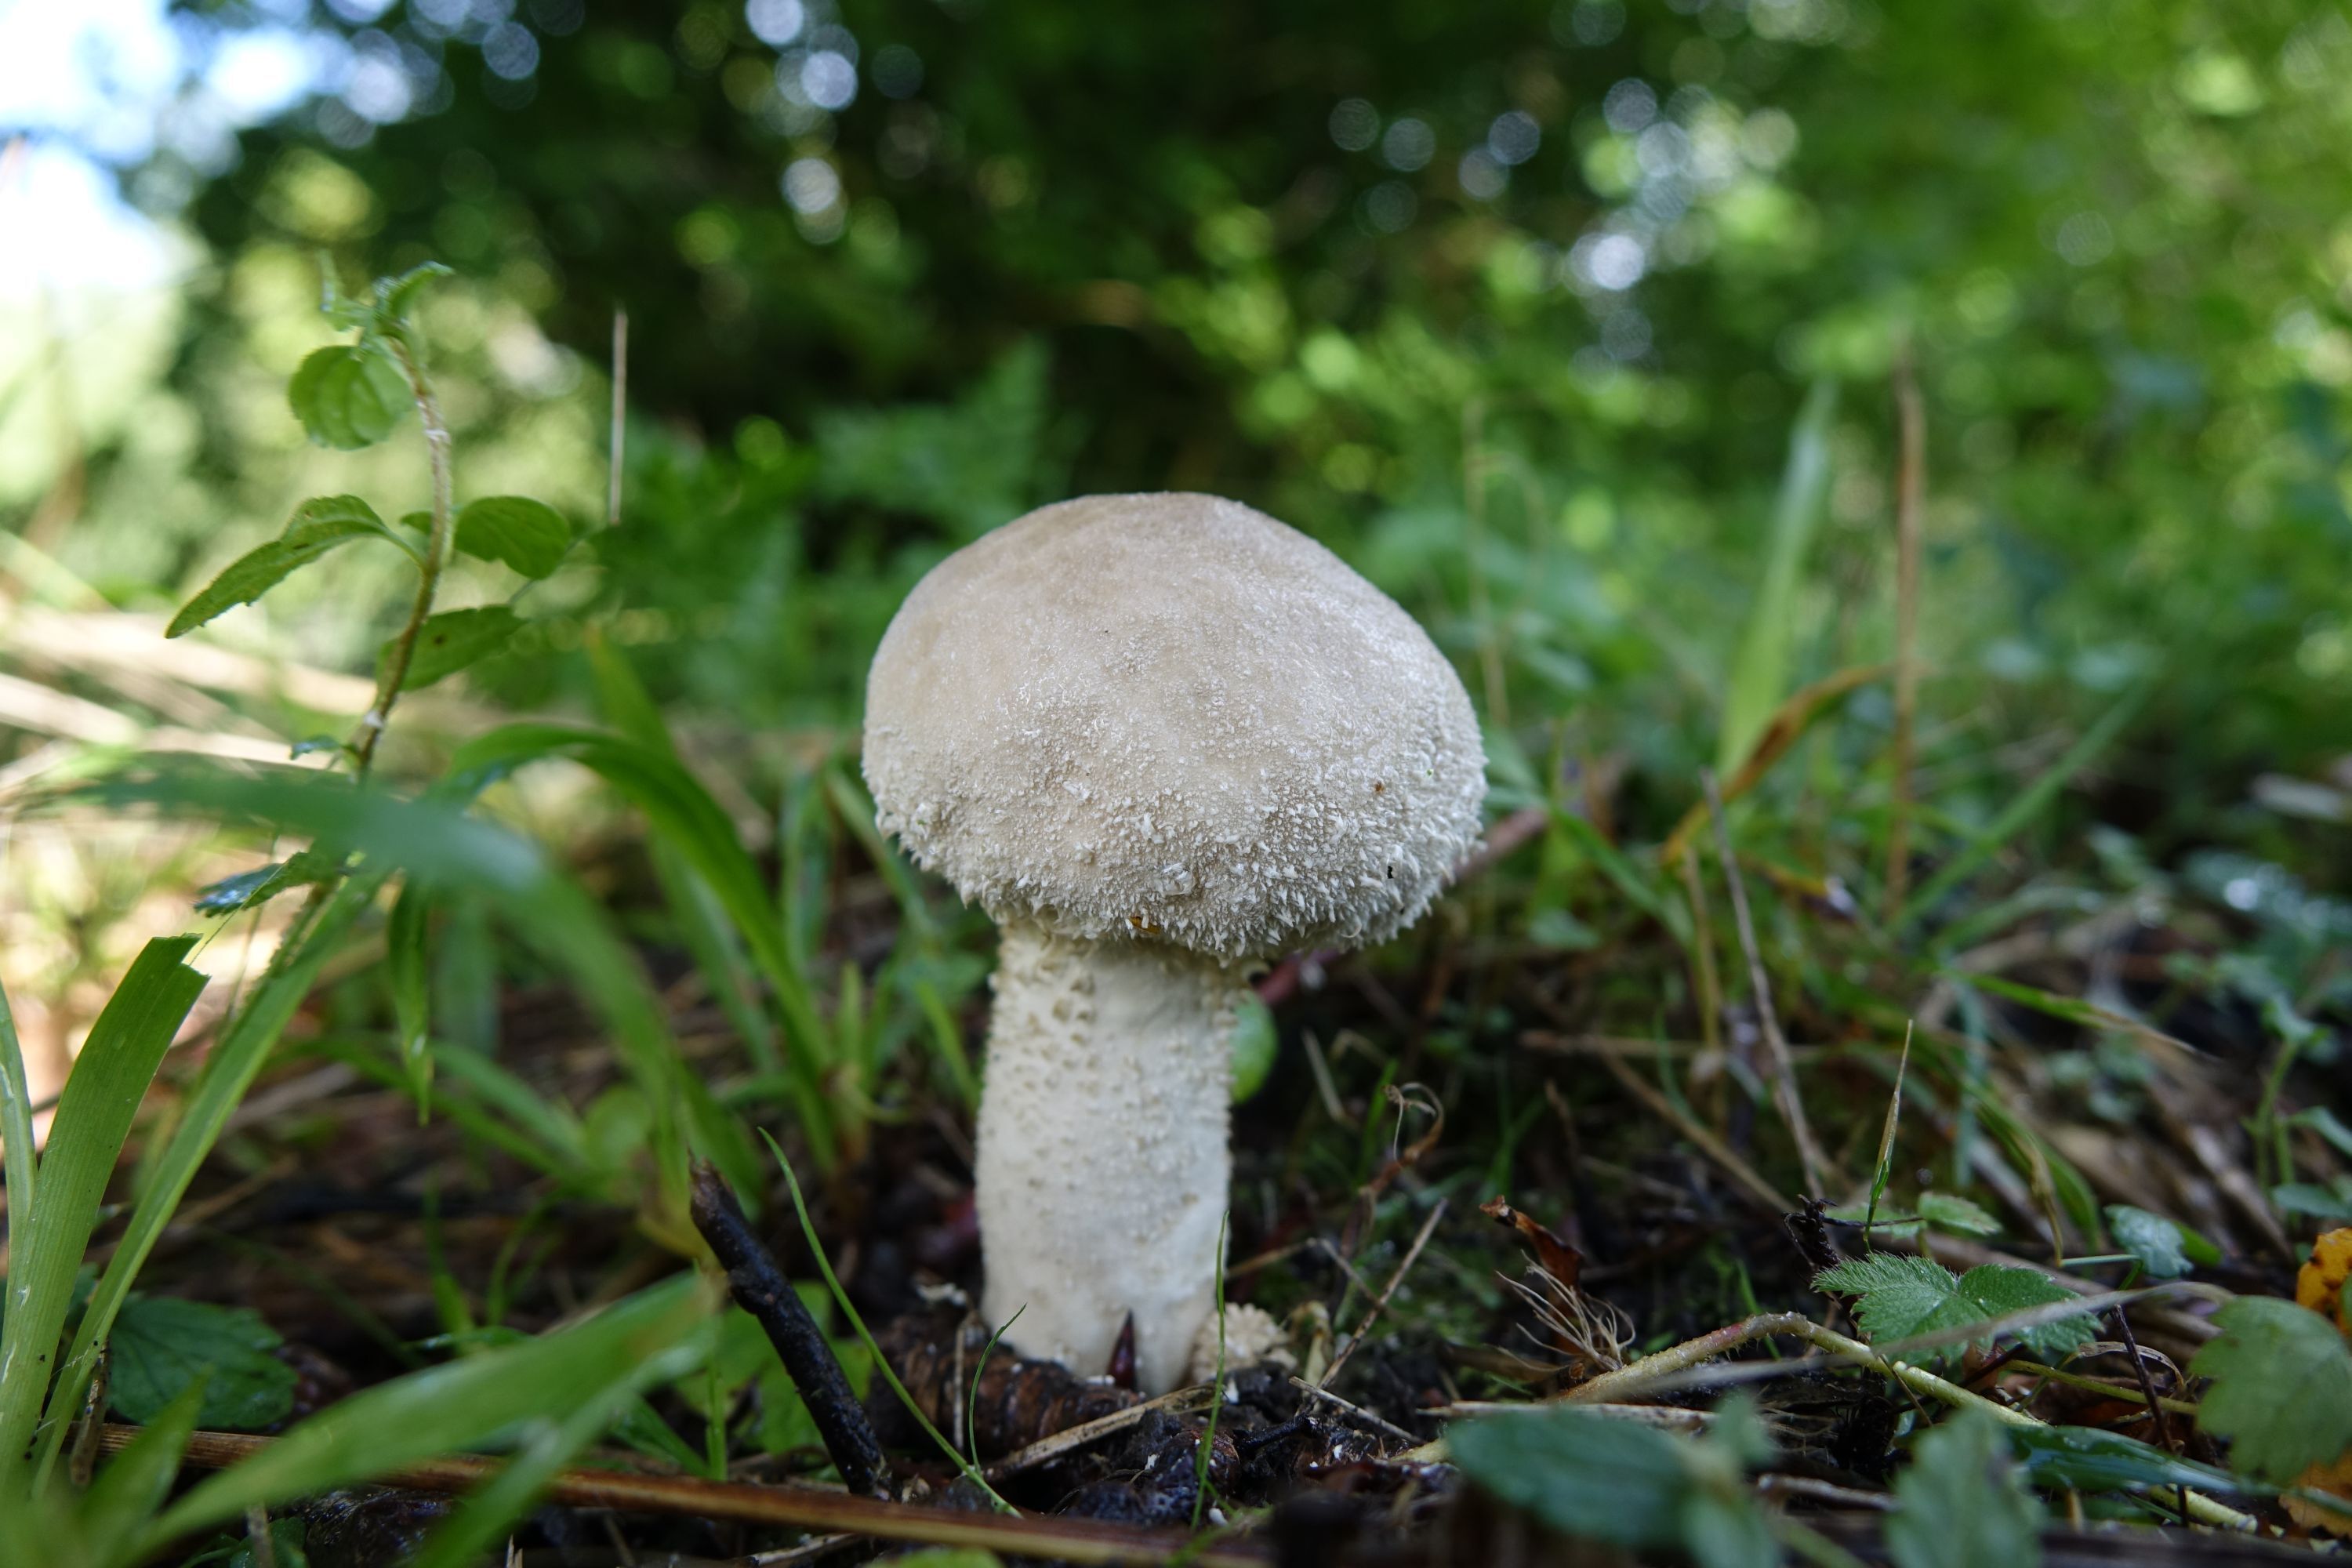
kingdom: Fungi
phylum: Basidiomycota
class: Agaricomycetes
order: Agaricales
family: Agaricaceae
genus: Lycoperdon
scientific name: Lycoperdon excipuliforme
